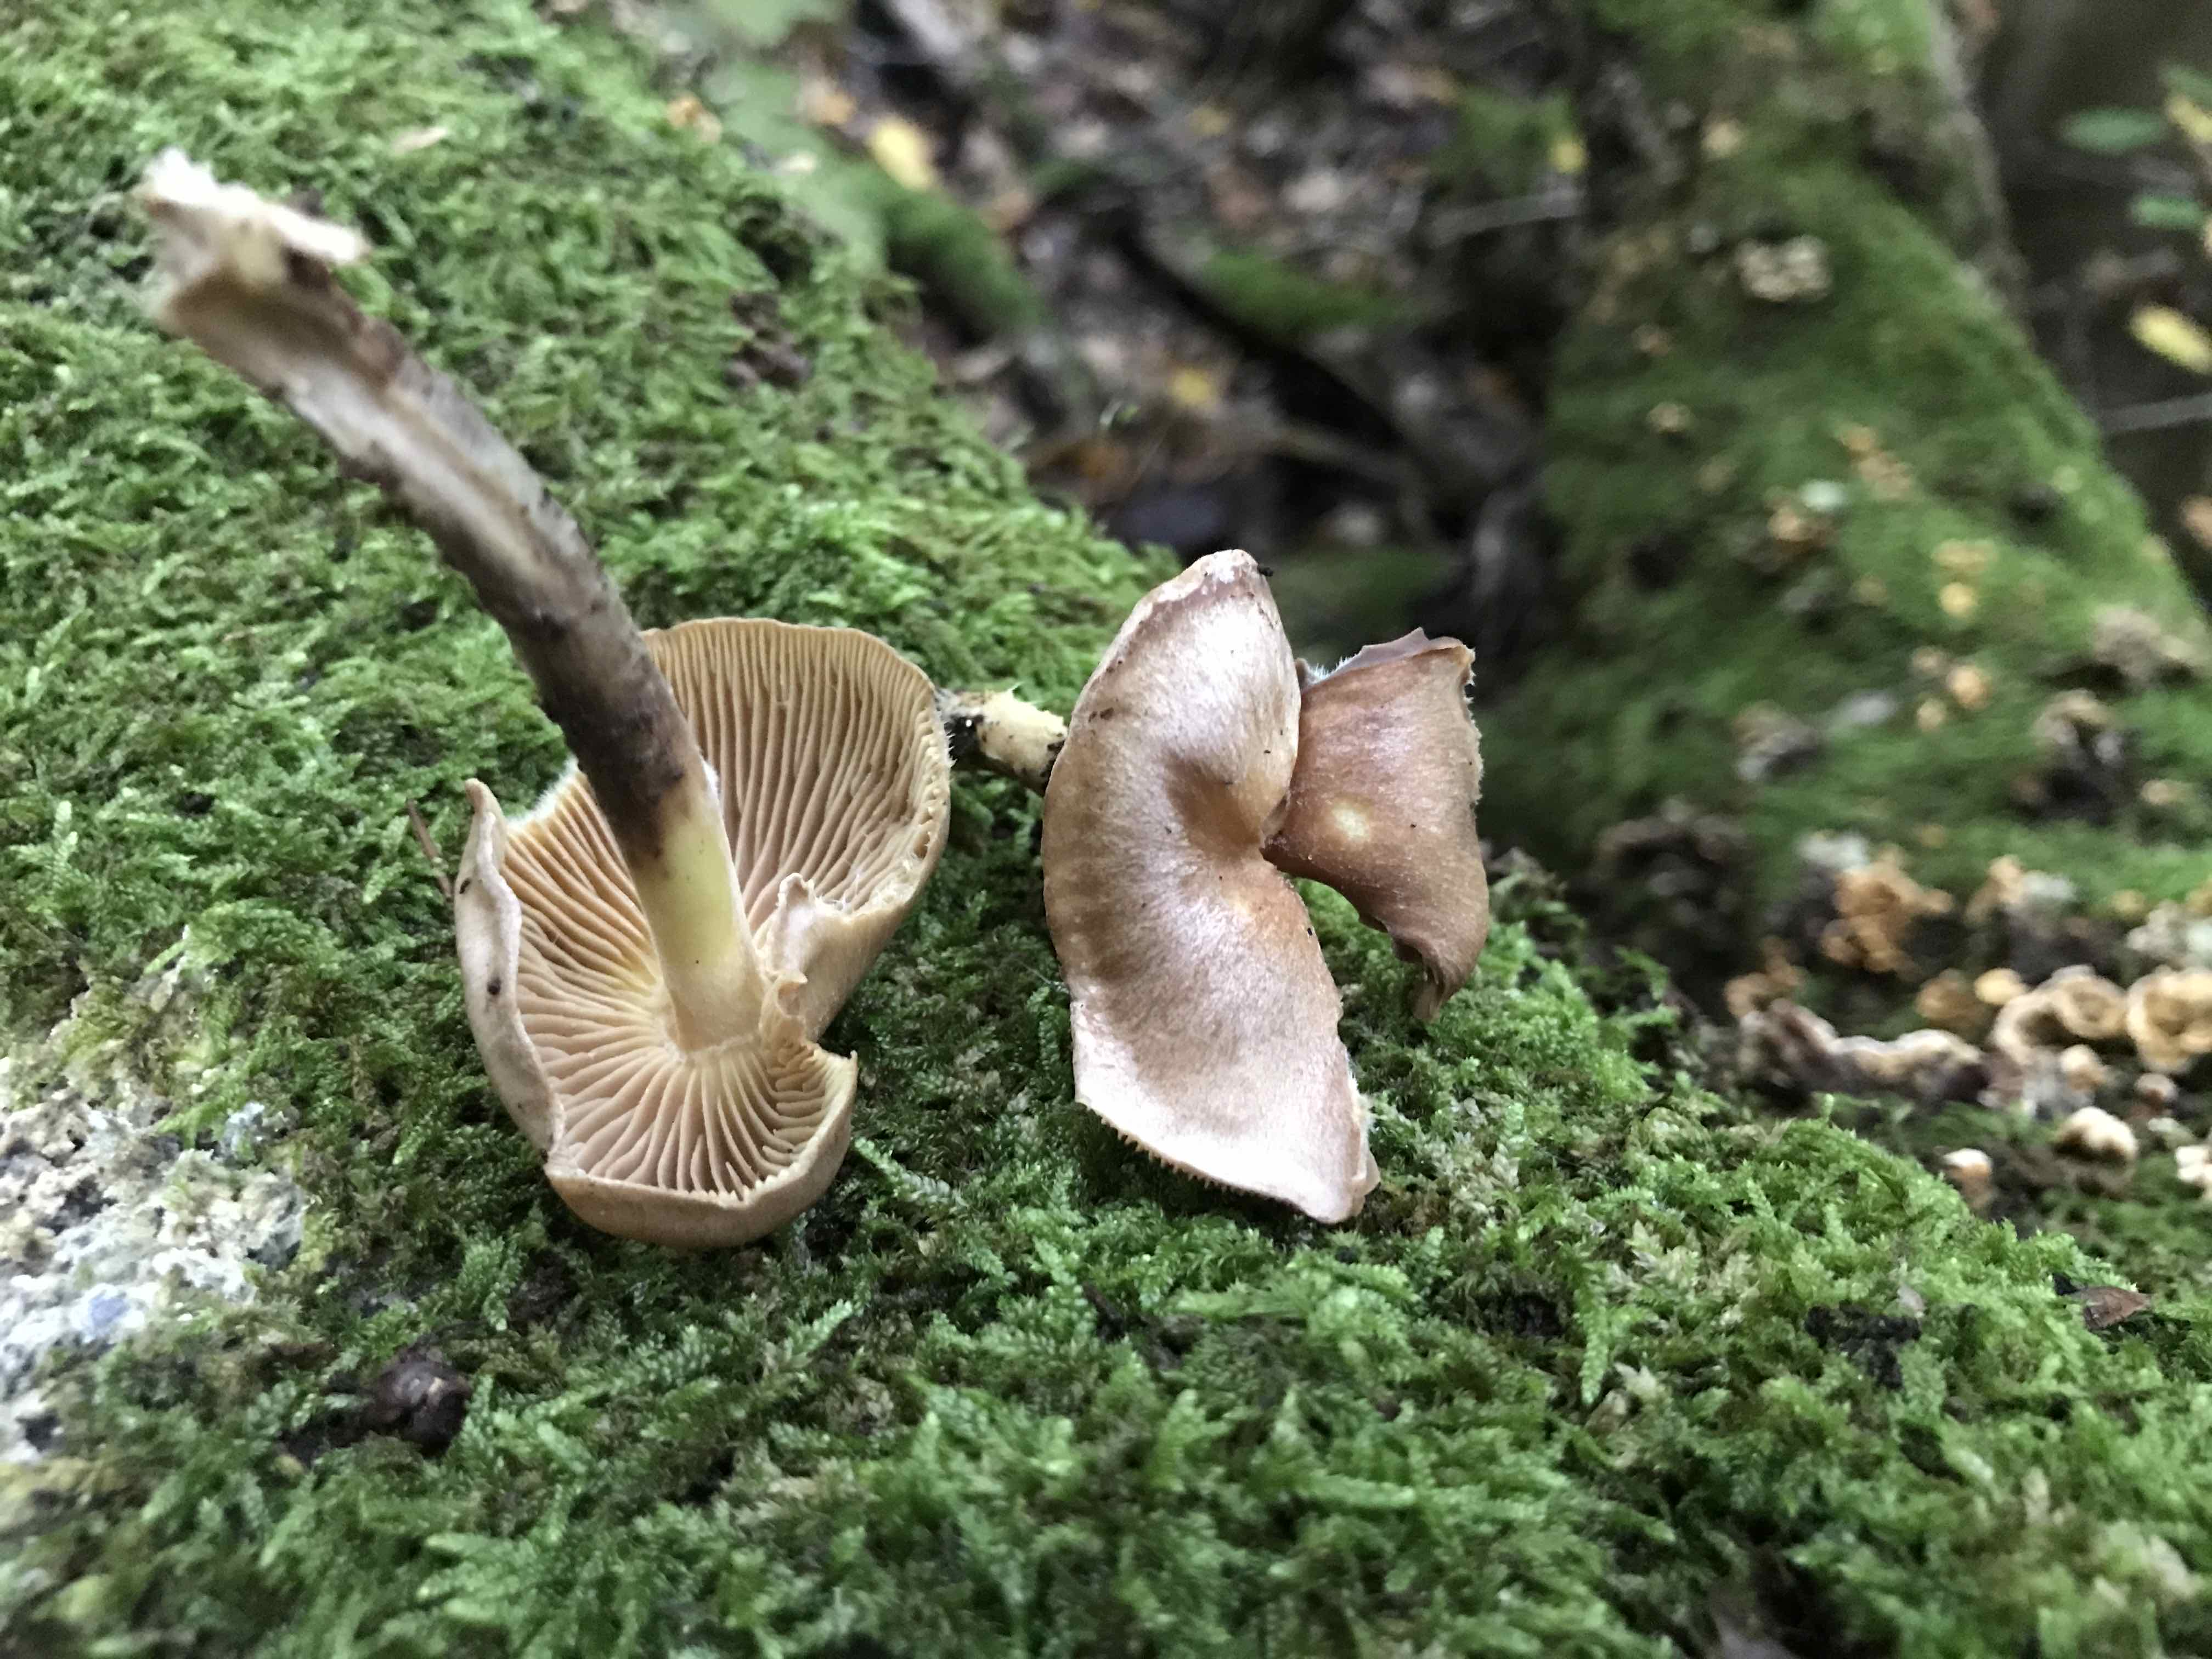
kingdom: Fungi
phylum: Basidiomycota
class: Agaricomycetes
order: Agaricales
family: Omphalotaceae
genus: Collybiopsis
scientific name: Collybiopsis peronata
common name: bestøvlet fladhat
